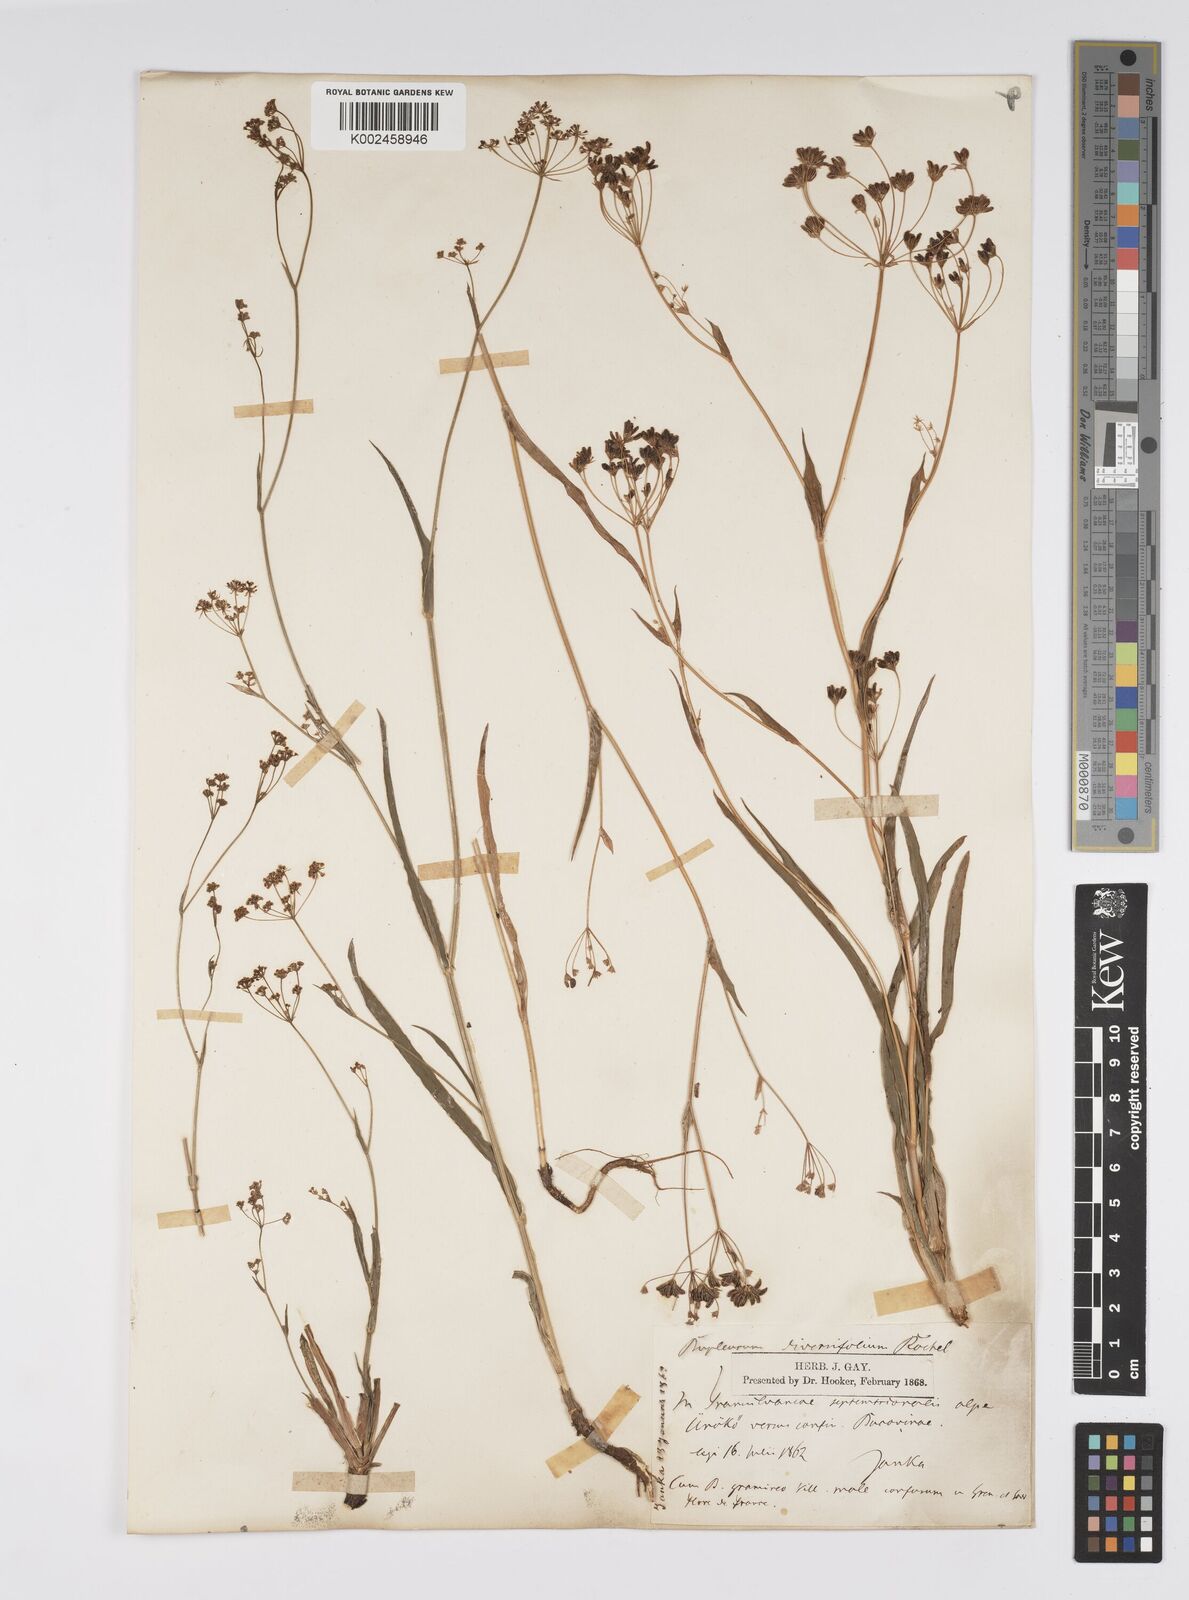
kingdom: Plantae
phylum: Tracheophyta
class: Magnoliopsida
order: Apiales
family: Apiaceae
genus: Bupleurum
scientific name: Bupleurum falcatum
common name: Sickle-leaved hare's-ear
